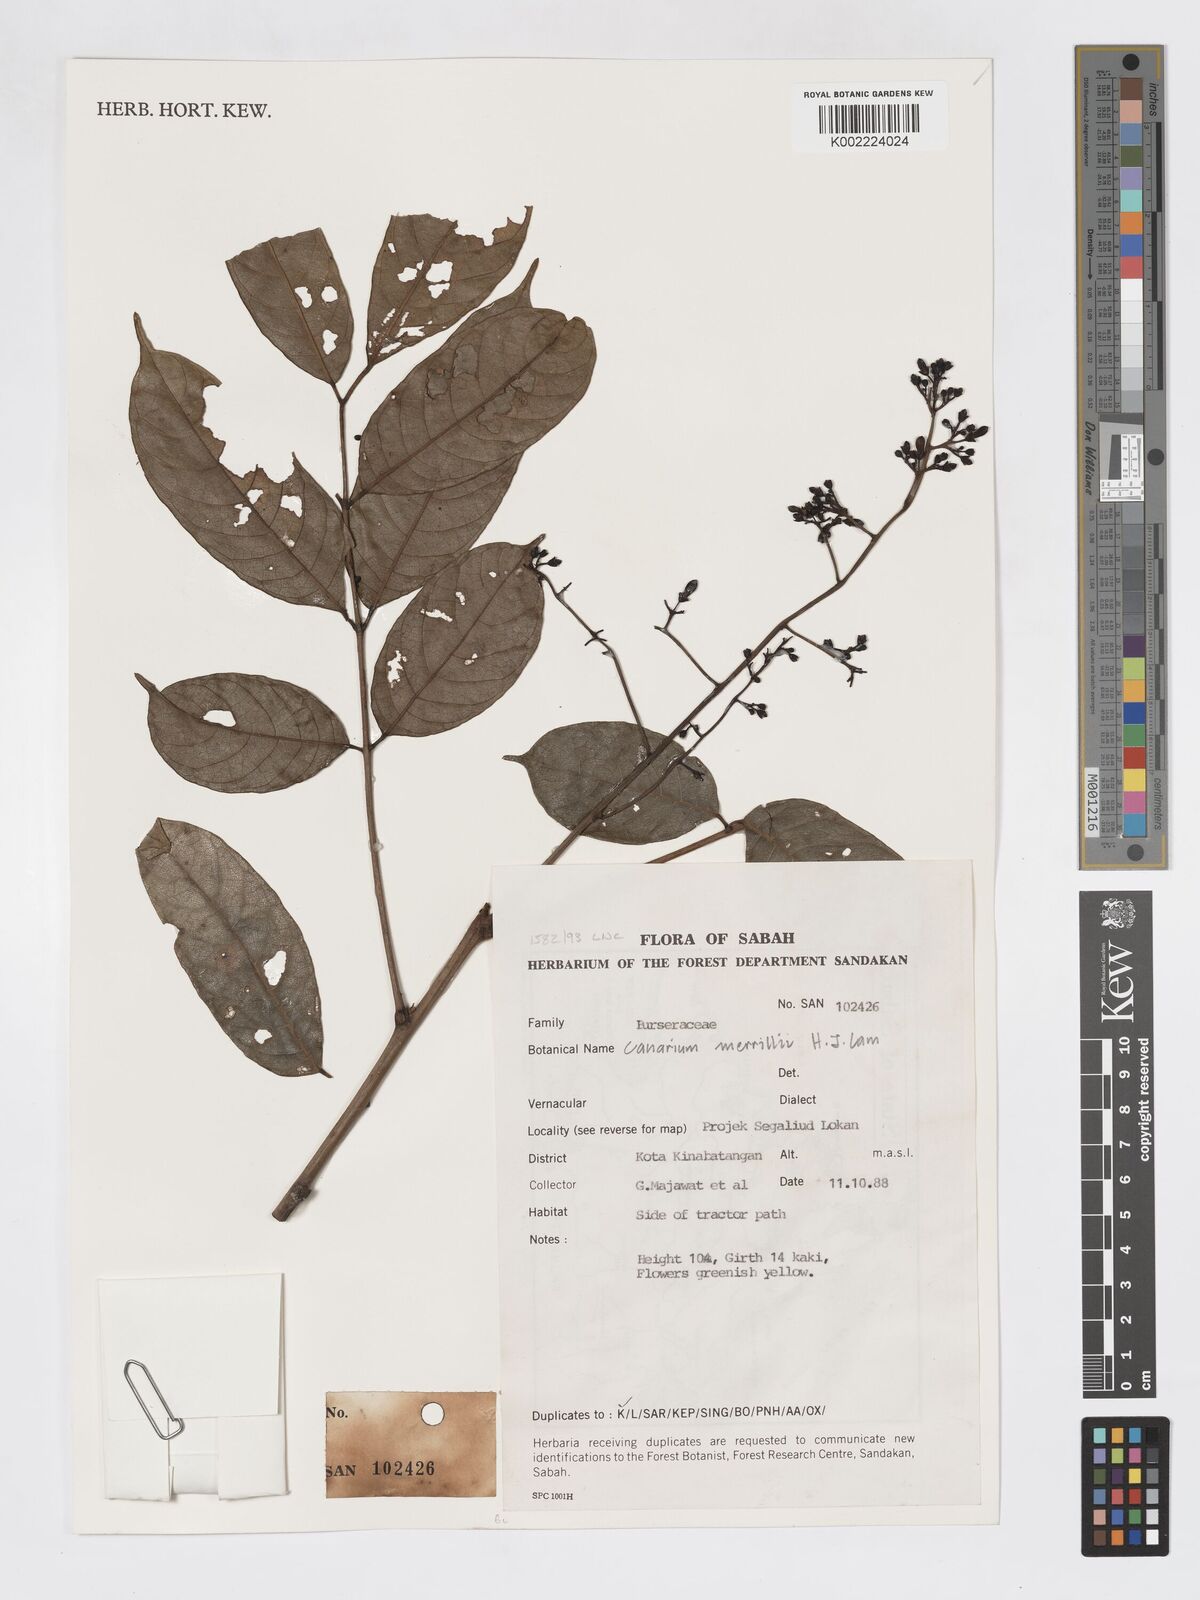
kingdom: Plantae
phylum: Tracheophyta
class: Magnoliopsida
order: Sapindales
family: Burseraceae
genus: Canarium
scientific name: Canarium merrillii
